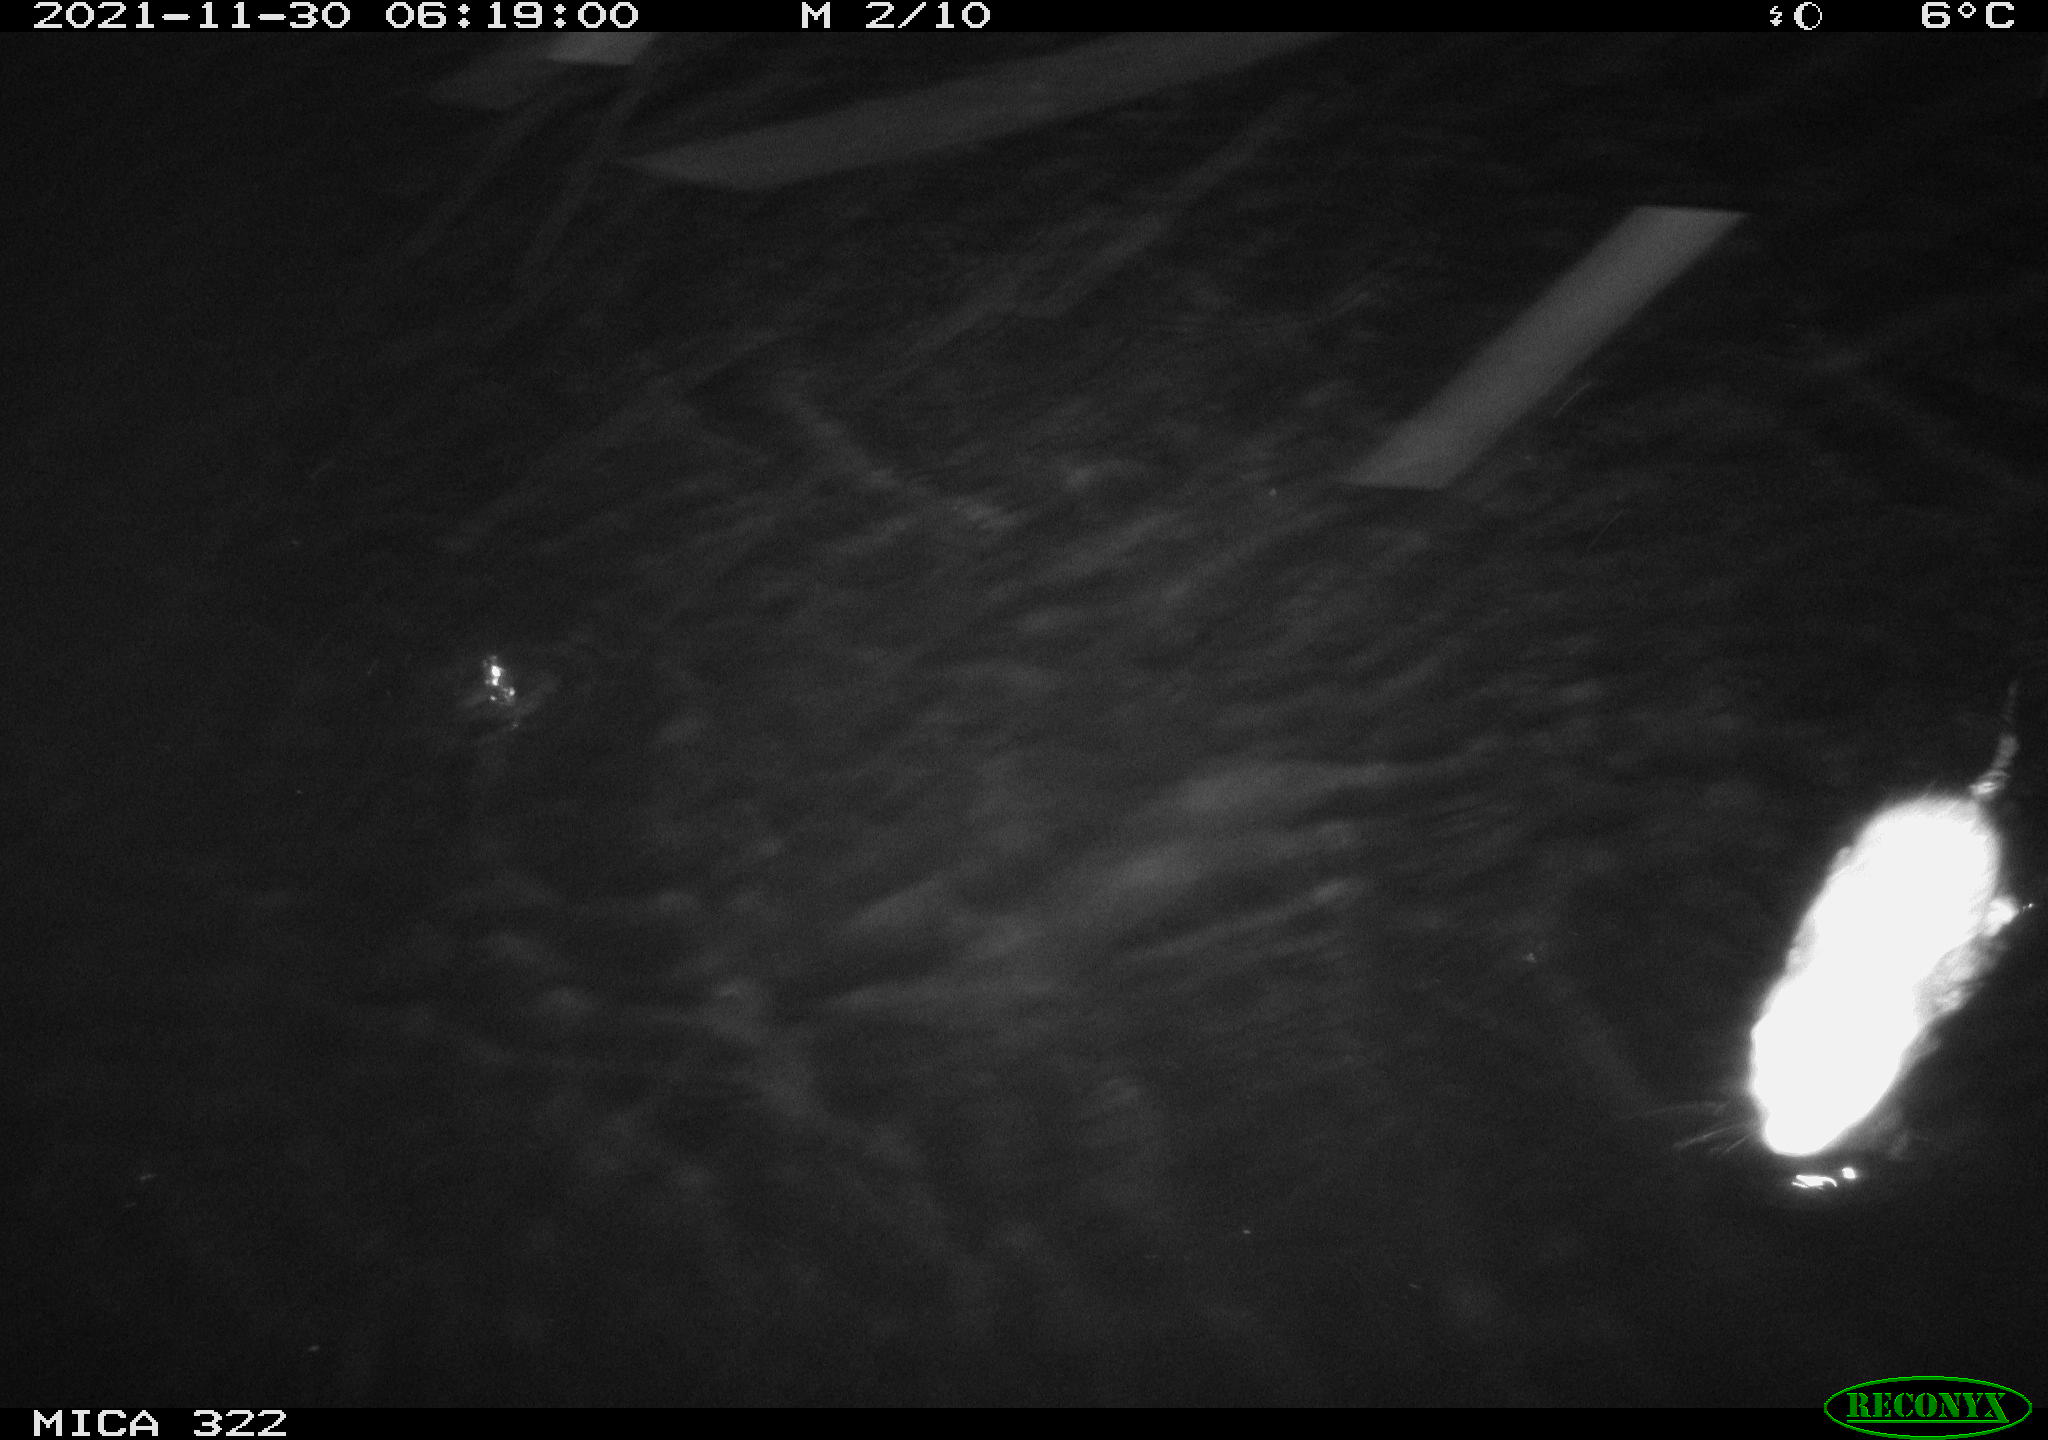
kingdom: Animalia
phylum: Chordata
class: Mammalia
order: Rodentia
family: Muridae
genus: Rattus
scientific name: Rattus norvegicus
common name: Brown rat
